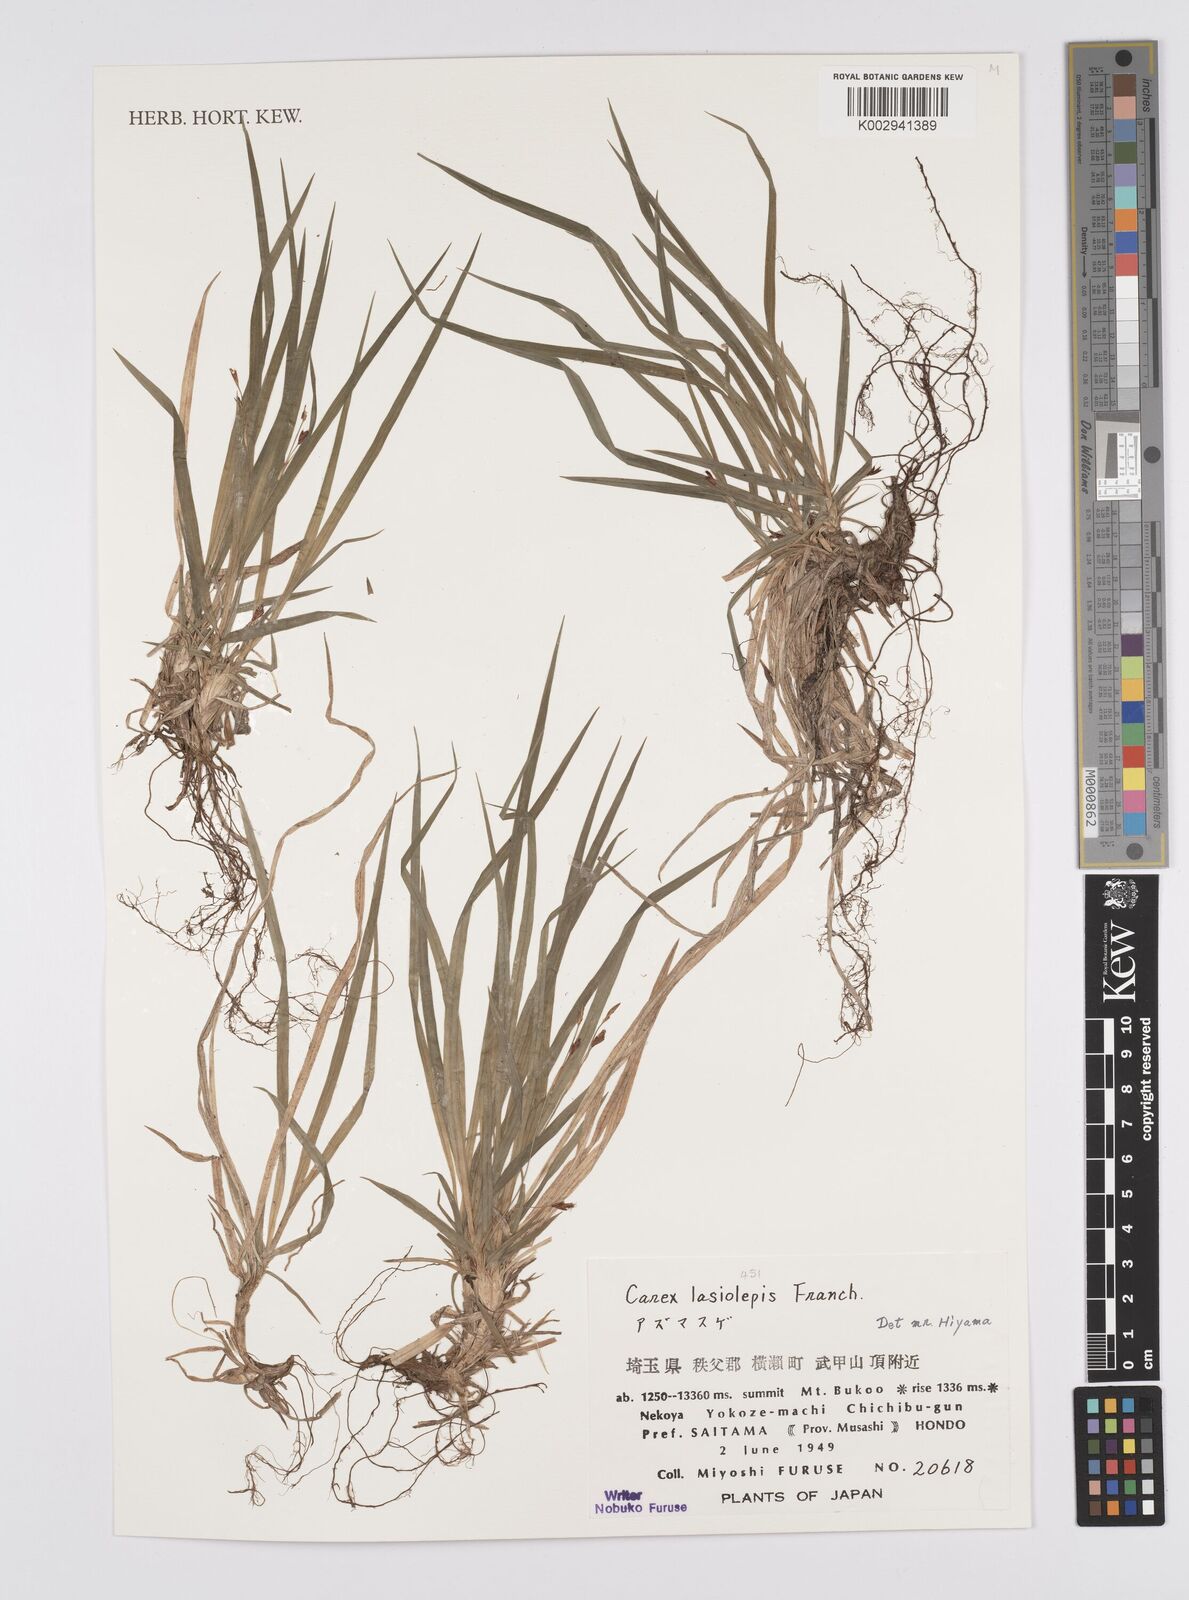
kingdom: Plantae
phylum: Tracheophyta
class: Liliopsida
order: Poales
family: Cyperaceae
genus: Carex
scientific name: Carex lasiolepis
